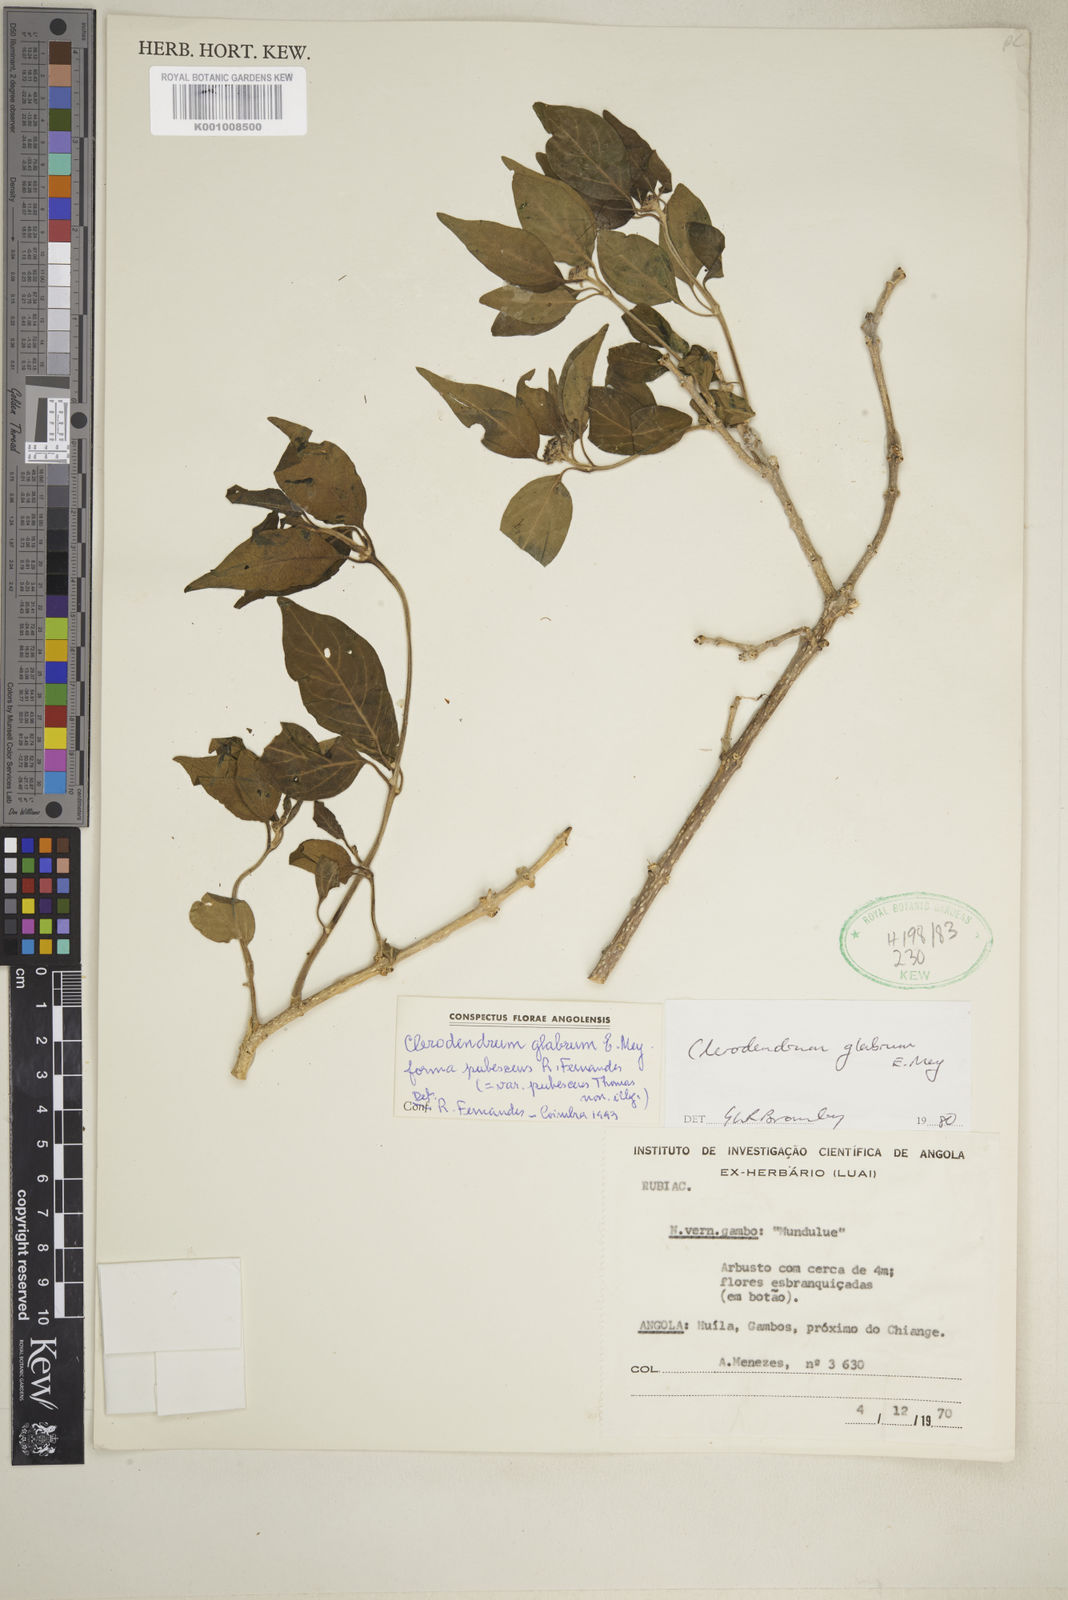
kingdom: Plantae
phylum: Tracheophyta
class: Magnoliopsida
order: Lamiales
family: Lamiaceae
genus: Volkameria
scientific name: Volkameria glabra
